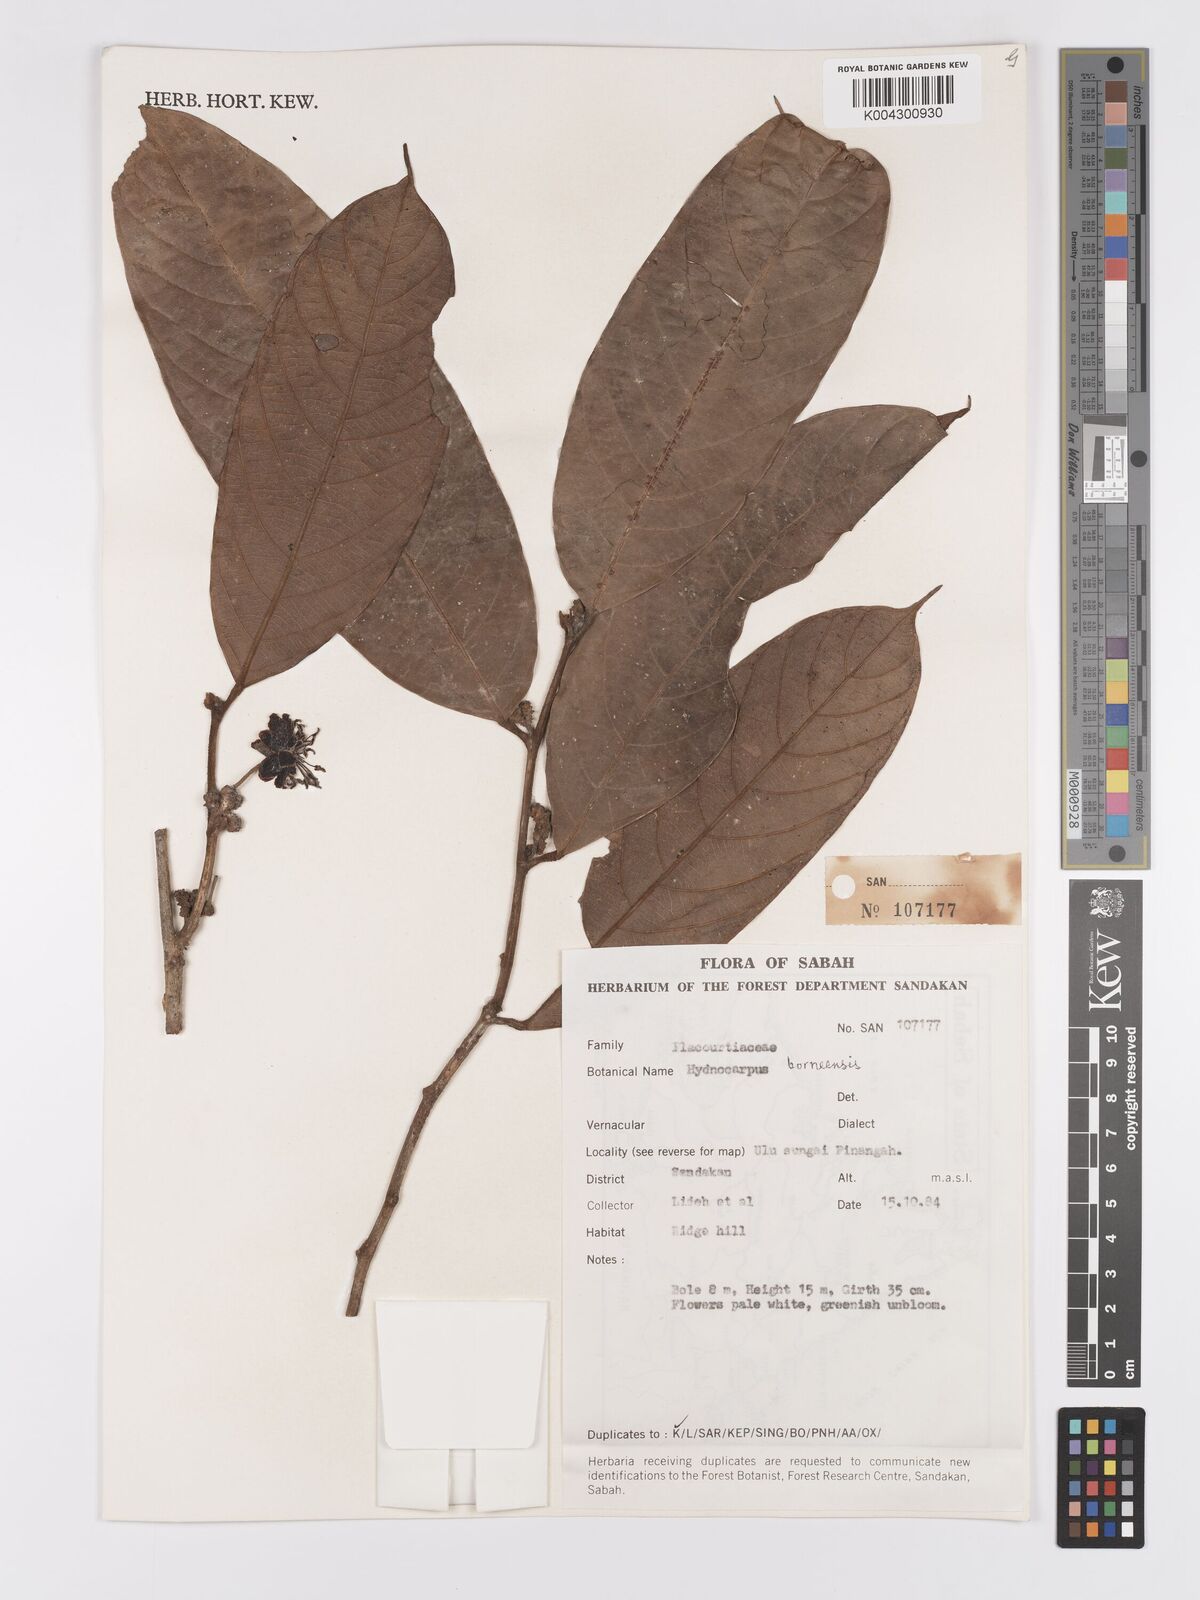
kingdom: Plantae
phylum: Tracheophyta
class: Magnoliopsida
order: Malpighiales
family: Achariaceae
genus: Hydnocarpus
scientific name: Hydnocarpus borneensis
